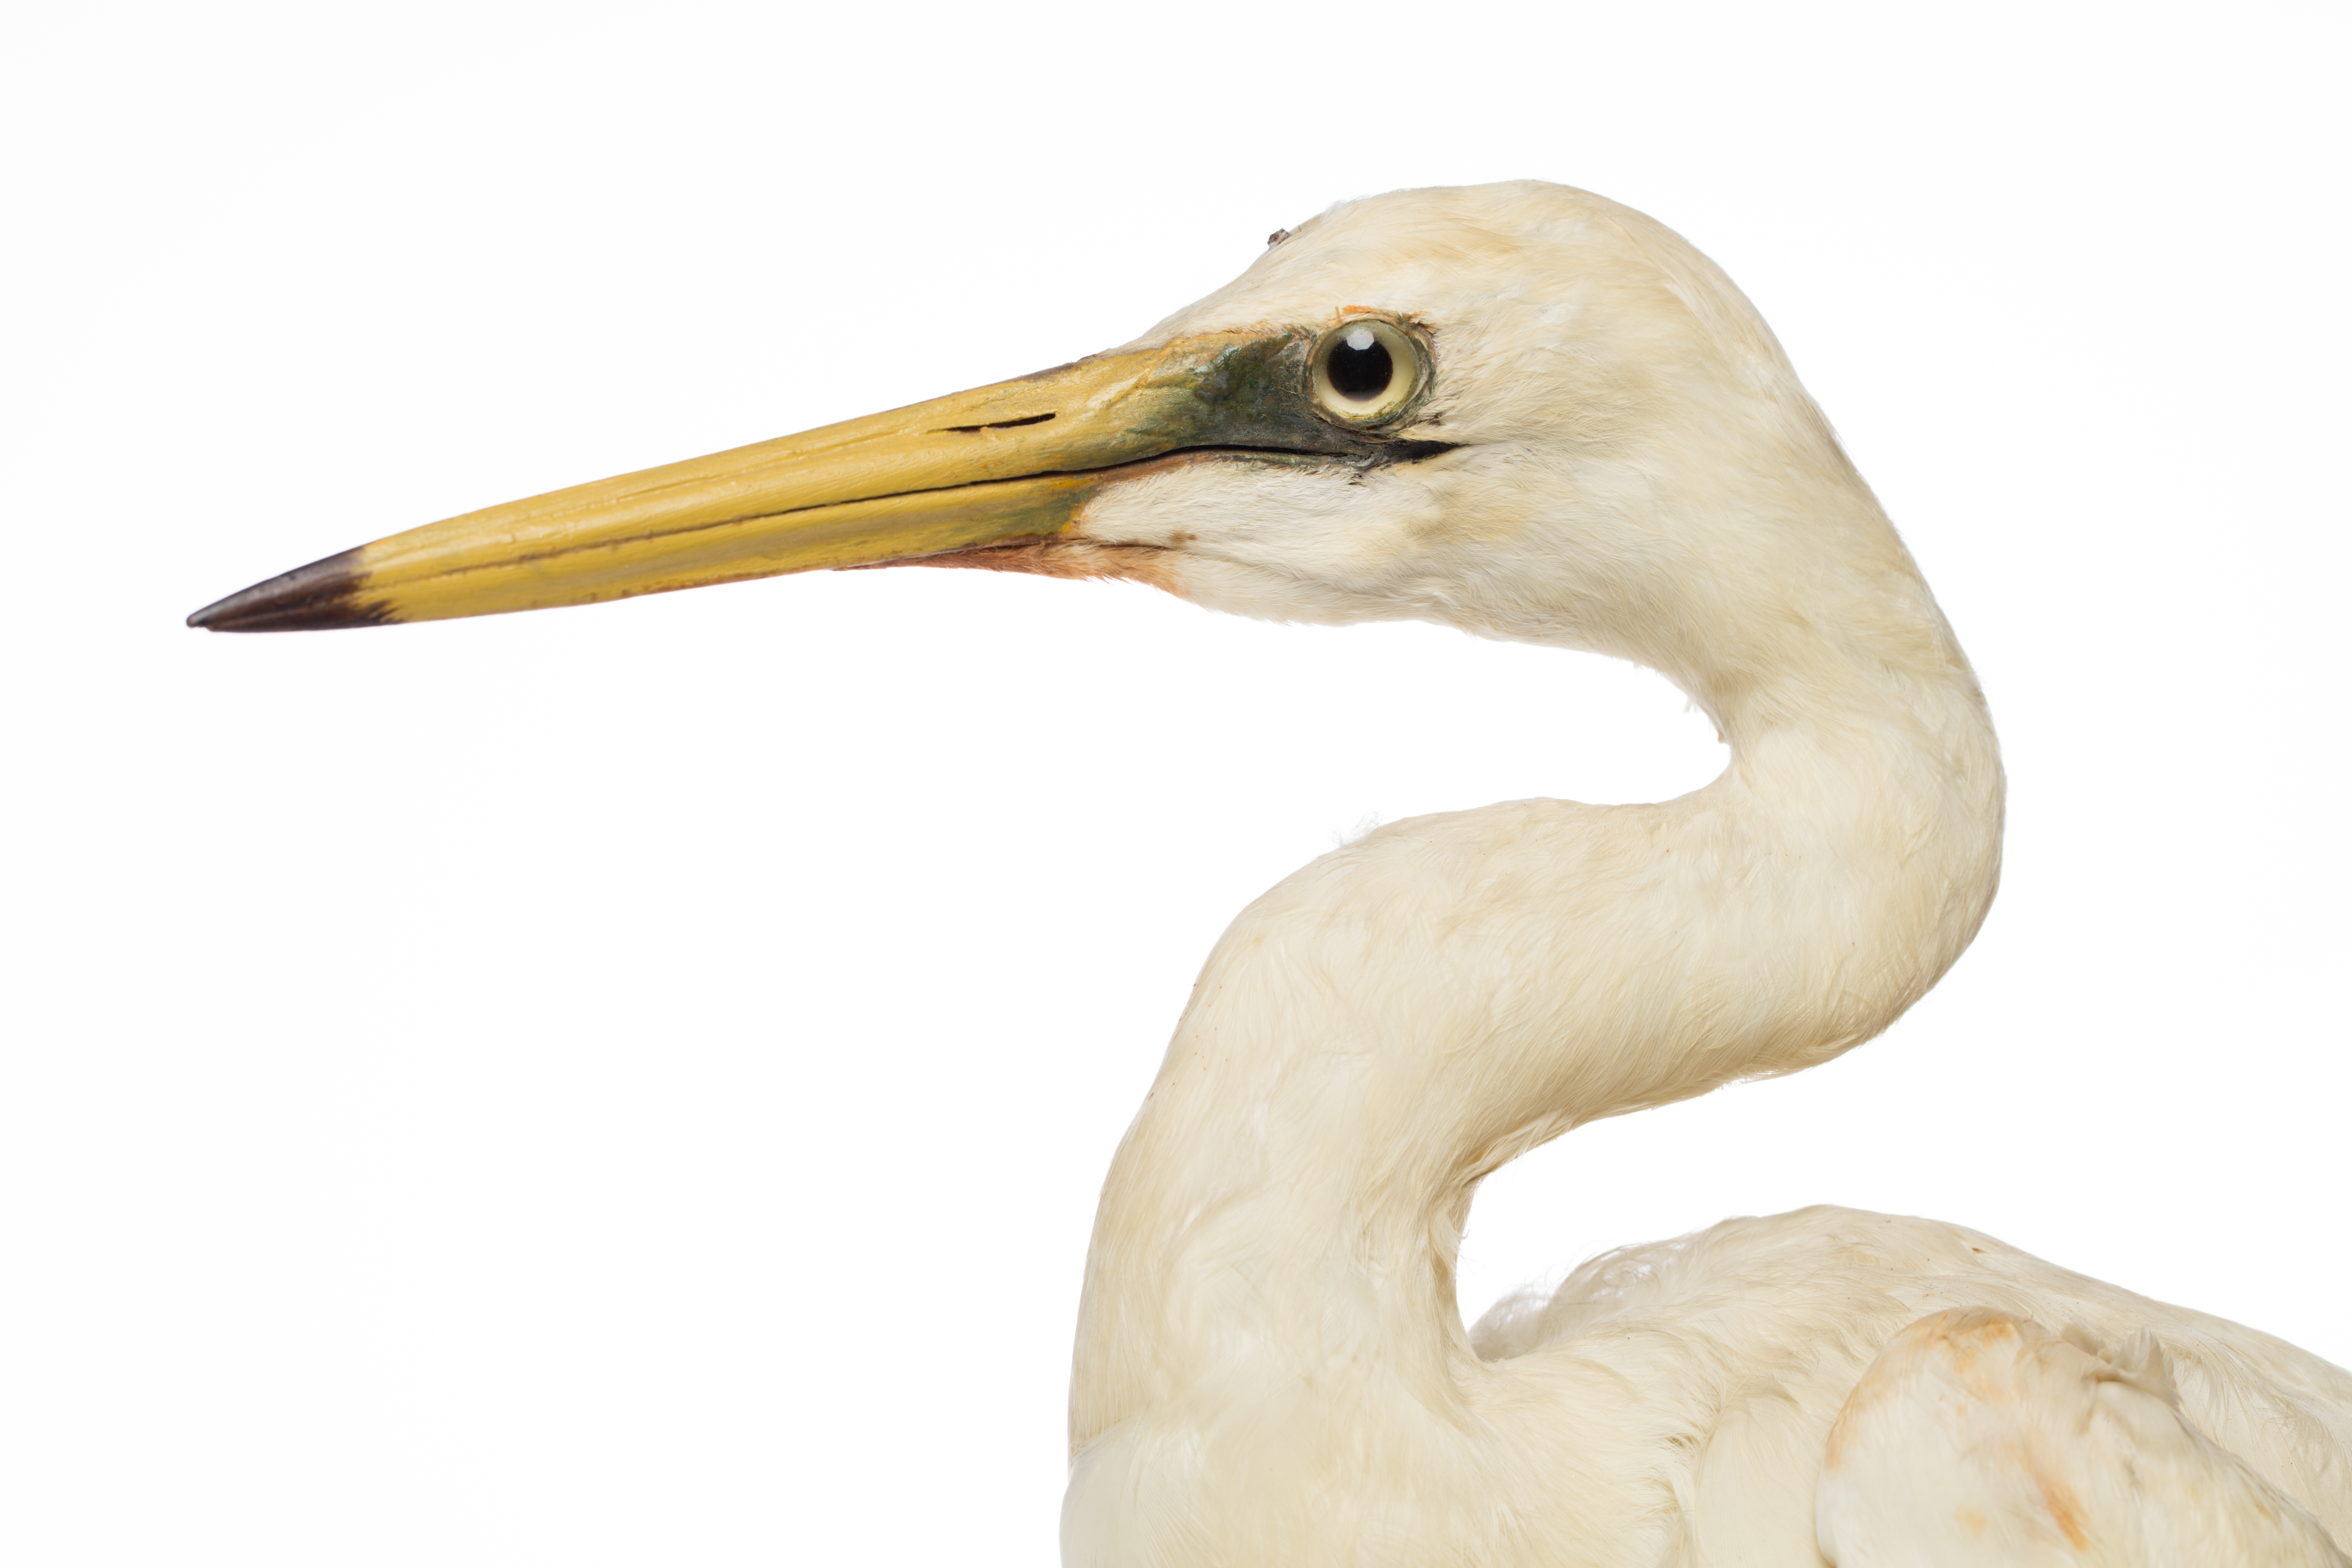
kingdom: Animalia
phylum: Chordata
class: Aves
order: Pelecaniformes
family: Ardeidae
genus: Ardea
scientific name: Ardea alba
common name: Great egret
